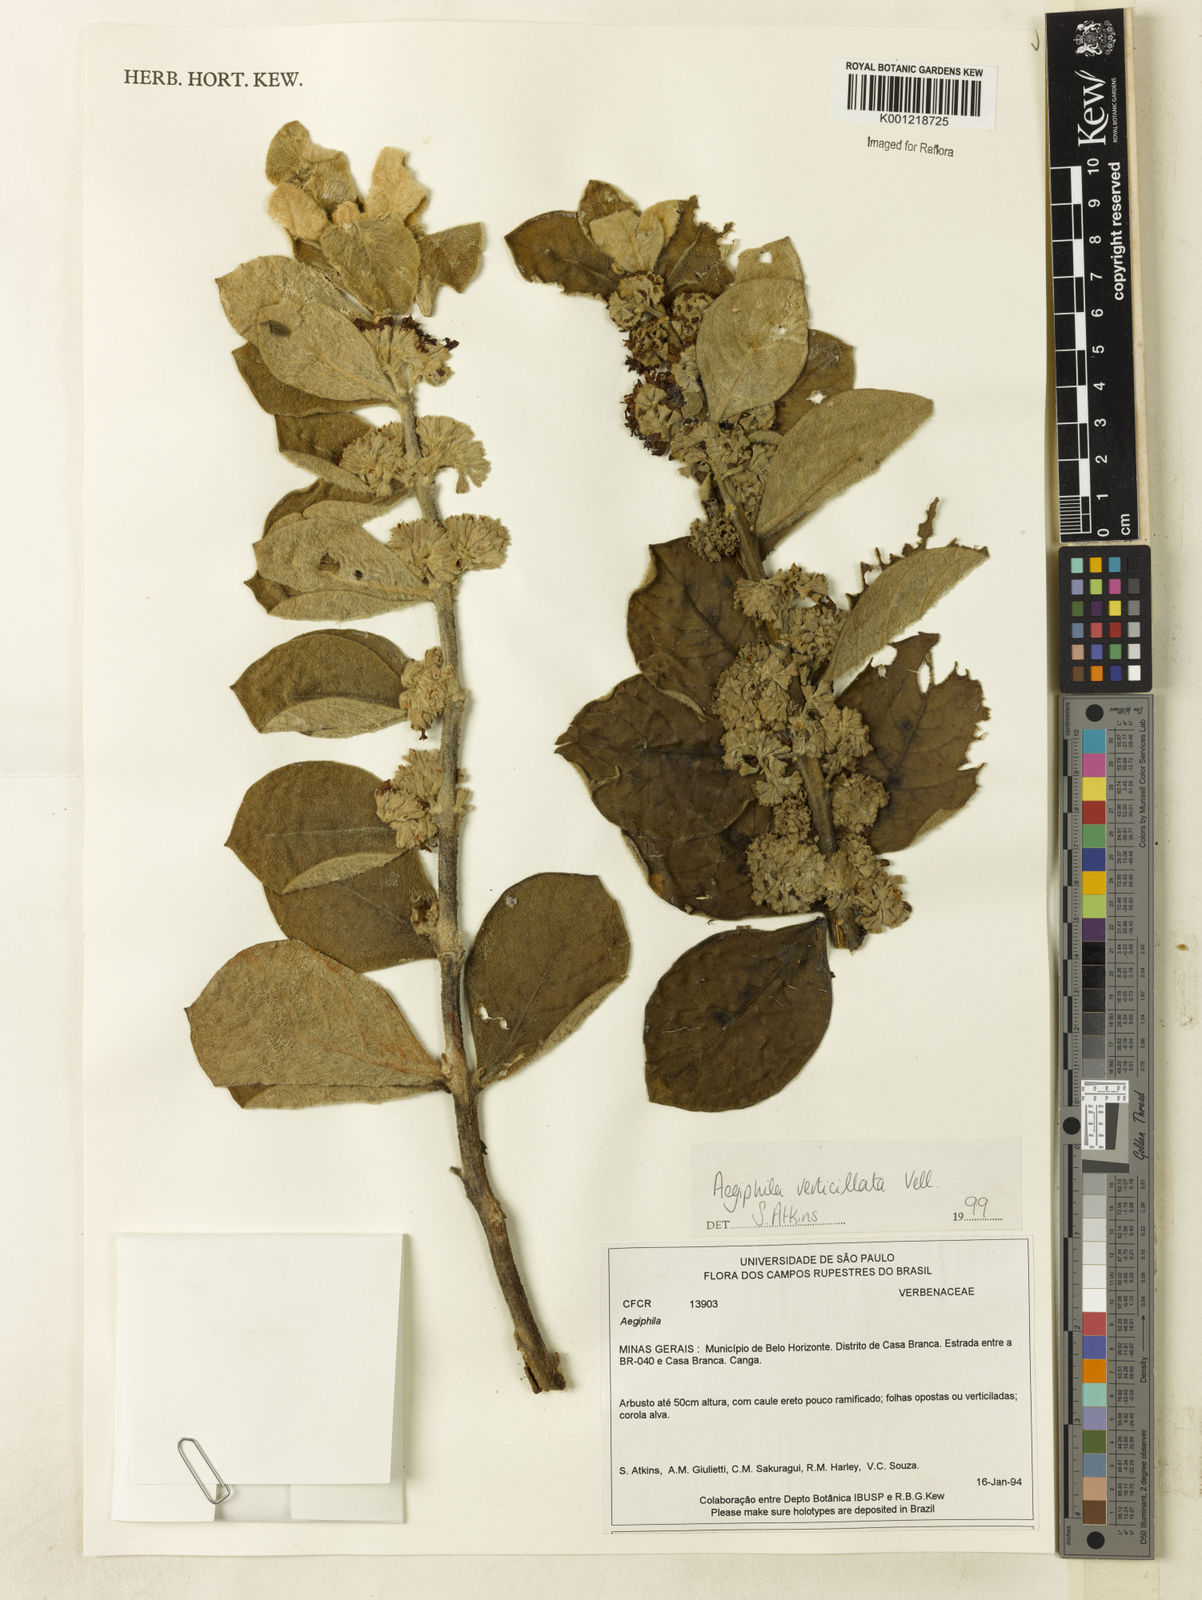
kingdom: Plantae
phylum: Tracheophyta
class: Magnoliopsida
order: Lamiales
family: Lamiaceae
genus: Aegiphila
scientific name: Aegiphila verticillata
